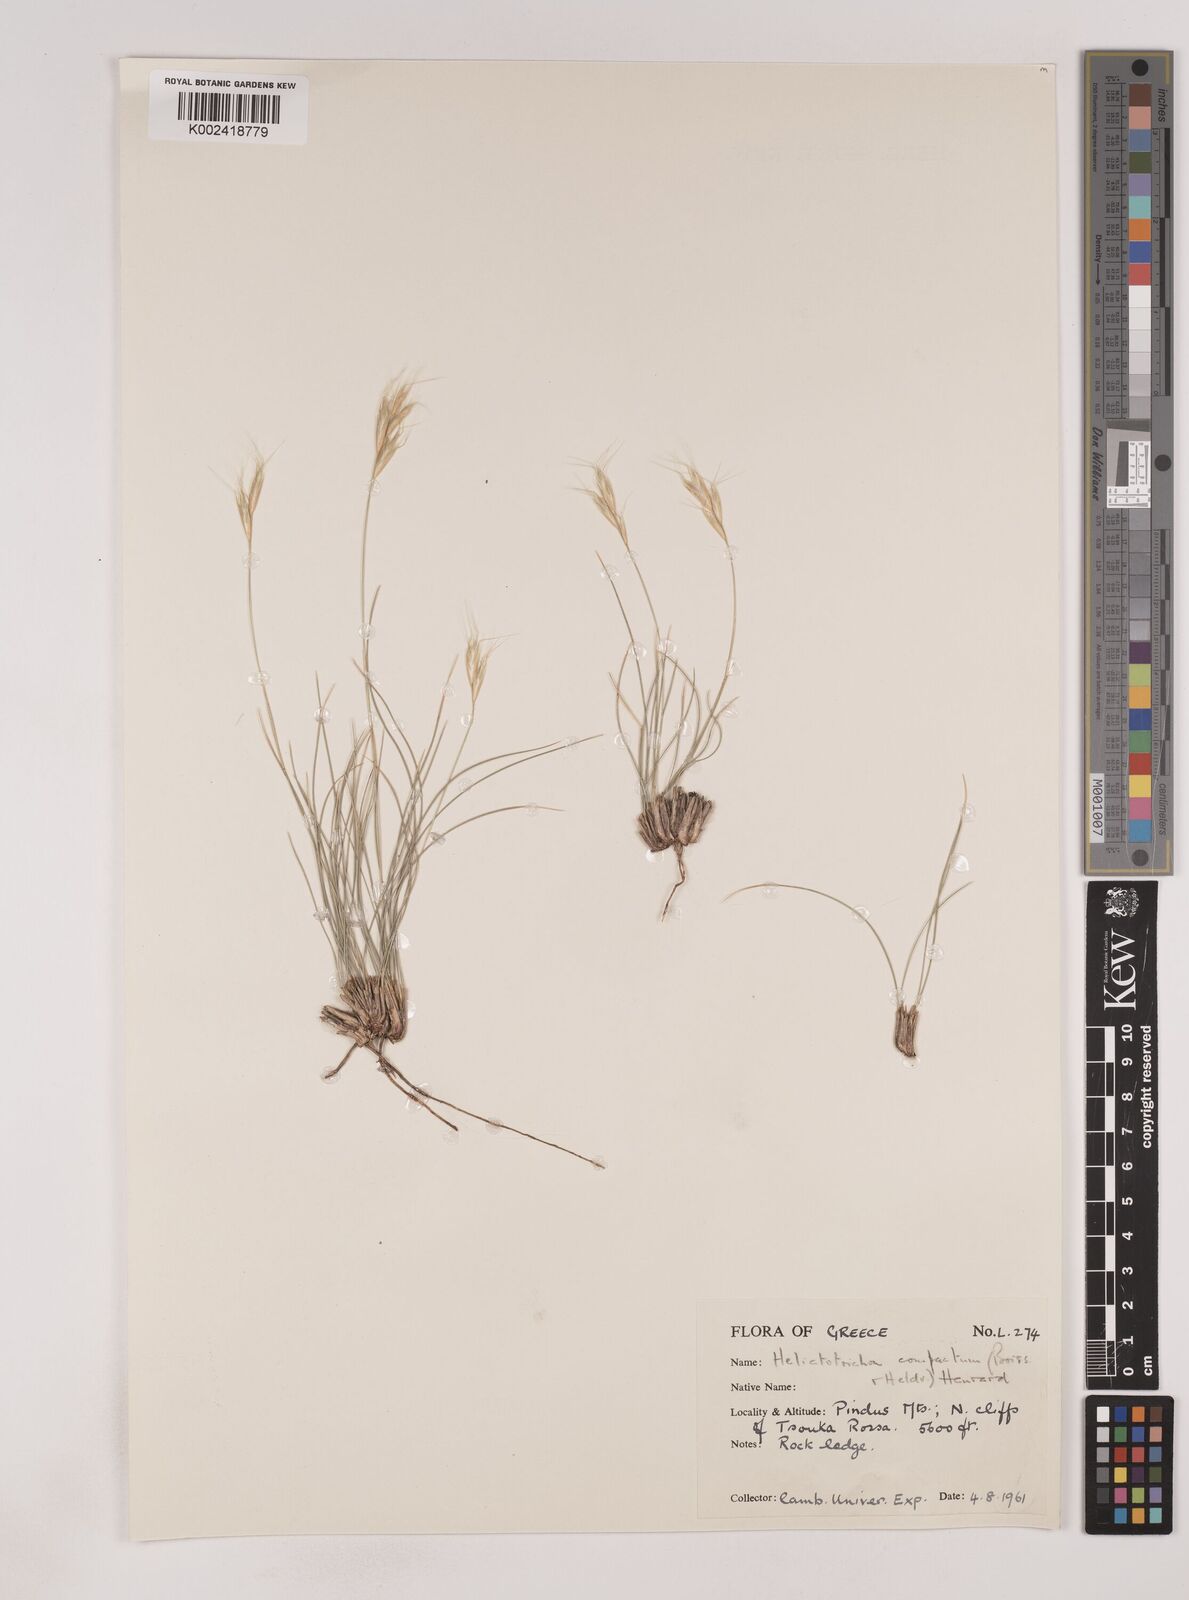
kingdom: Plantae
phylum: Tracheophyta
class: Liliopsida
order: Poales
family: Poaceae
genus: Danthoniastrum
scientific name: Danthoniastrum compactum
